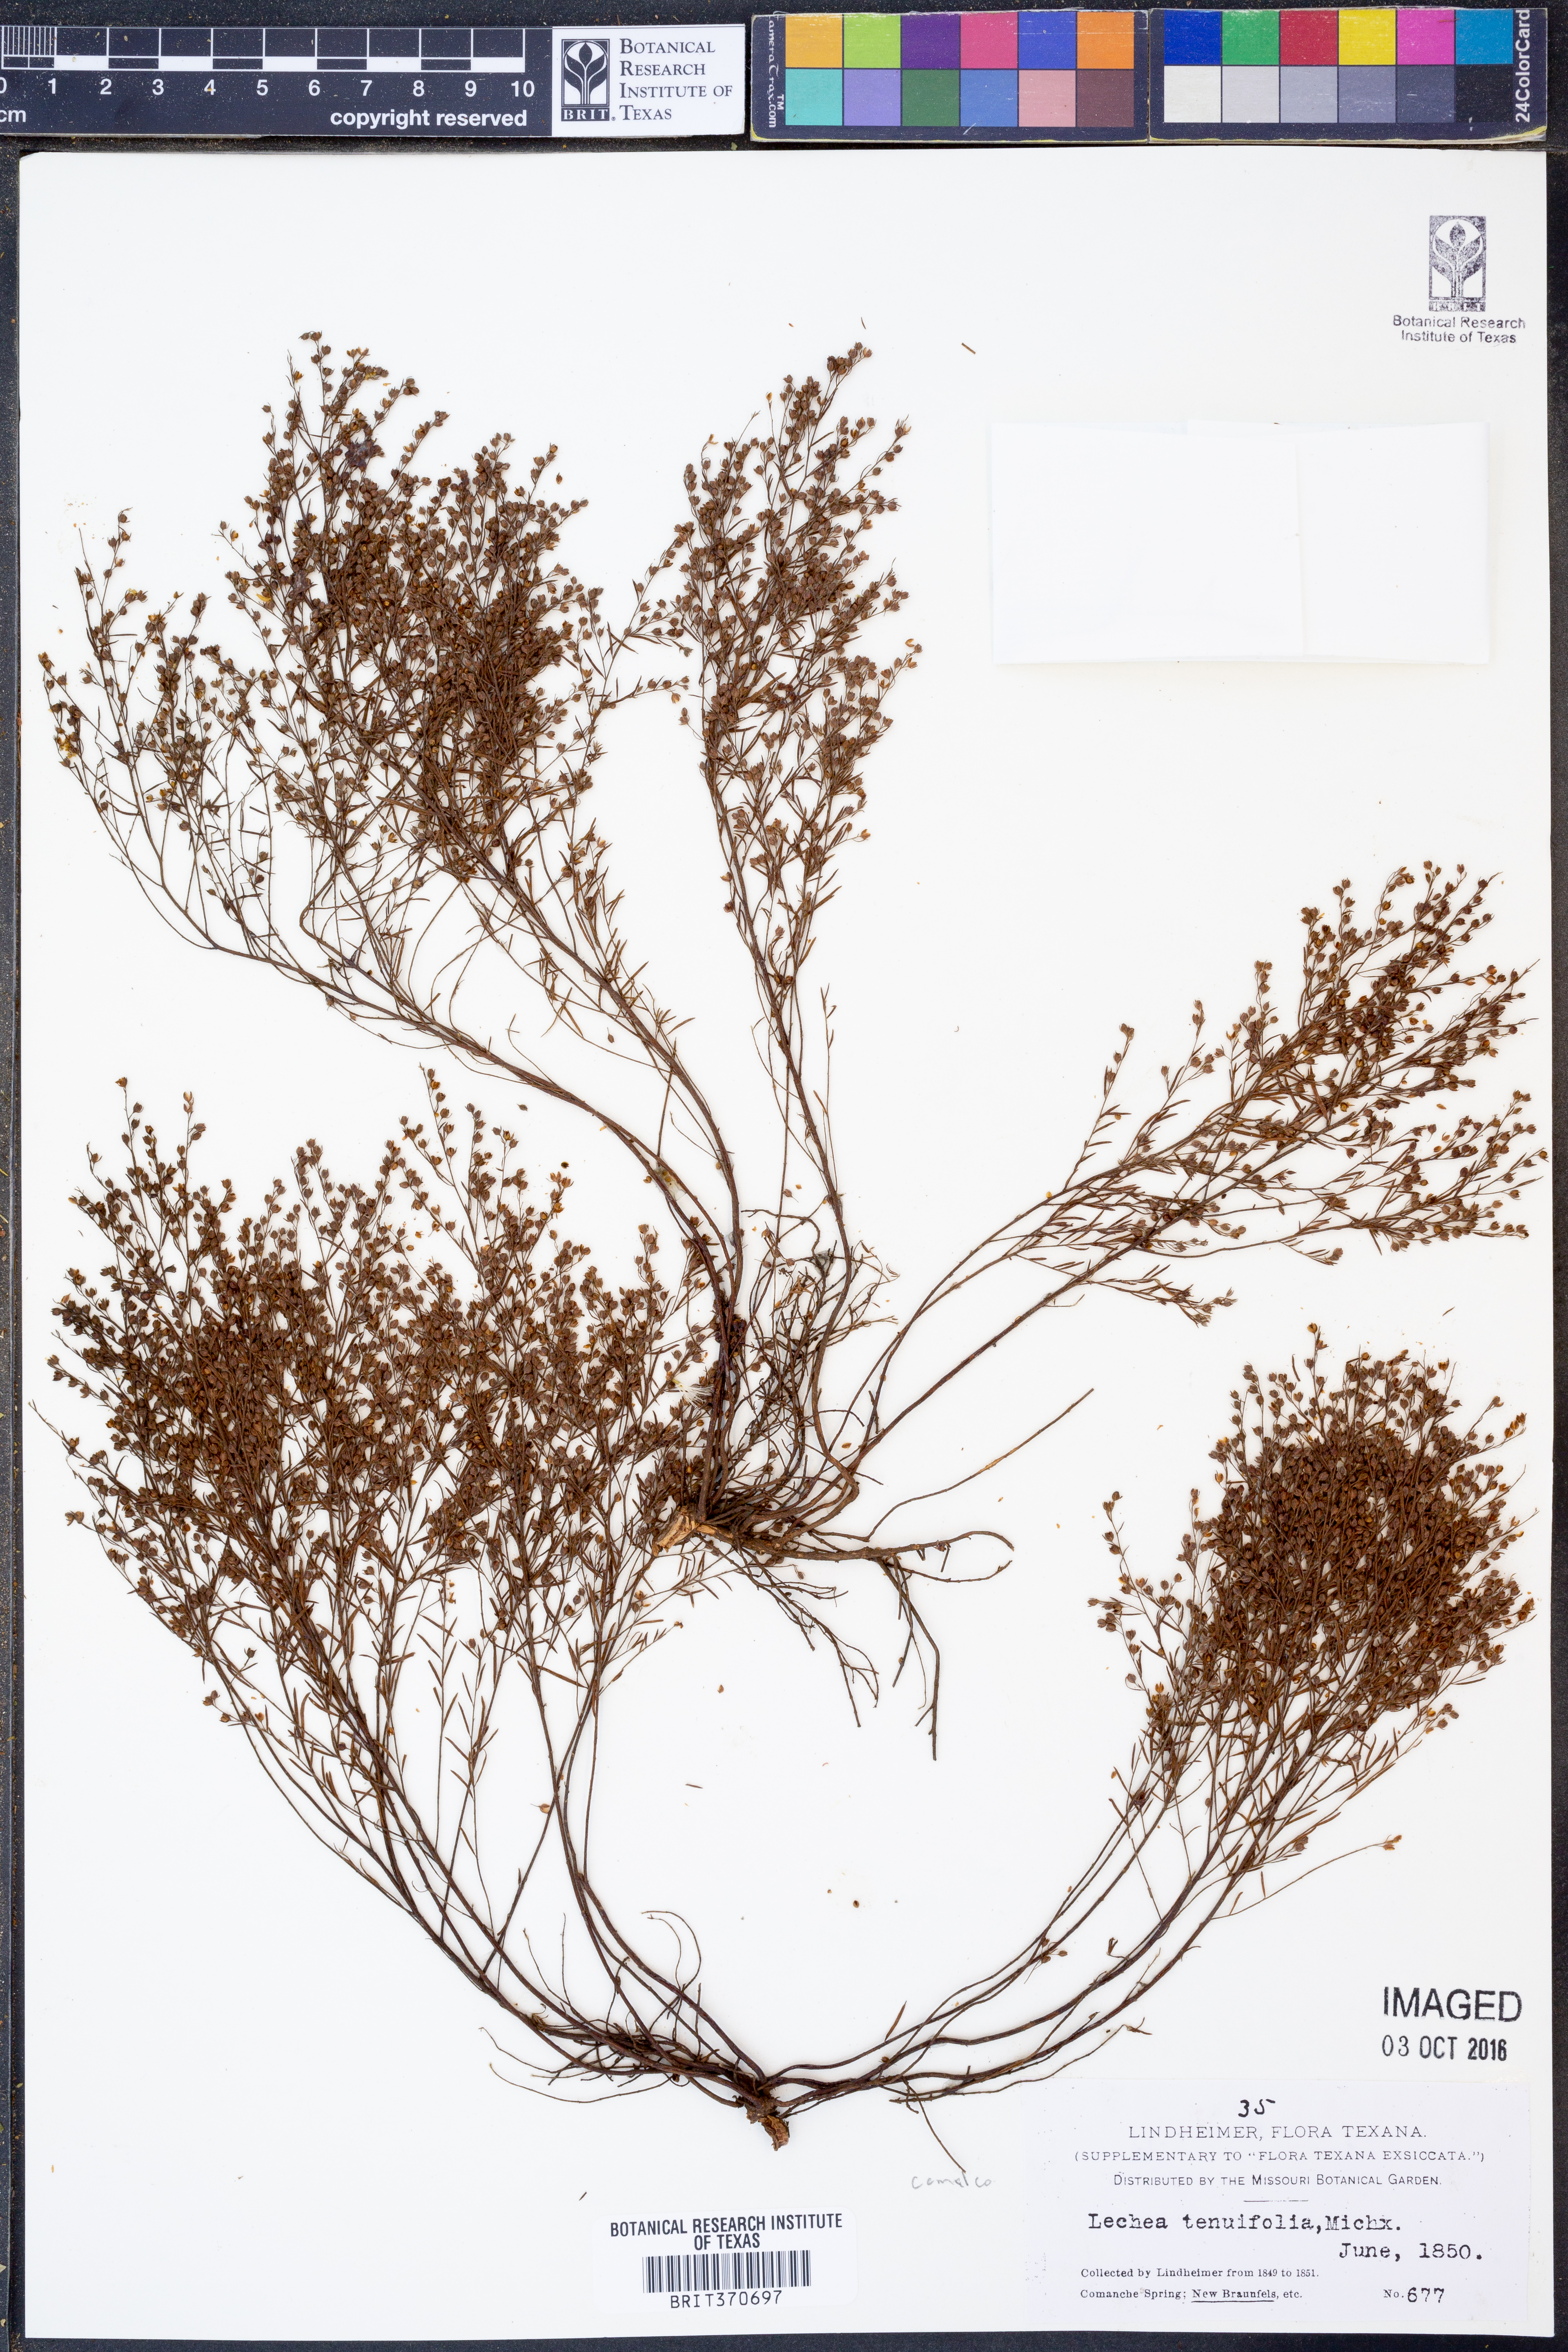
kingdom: Plantae
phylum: Tracheophyta
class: Magnoliopsida
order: Malvales
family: Cistaceae
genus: Lechea
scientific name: Lechea tenuifolia
